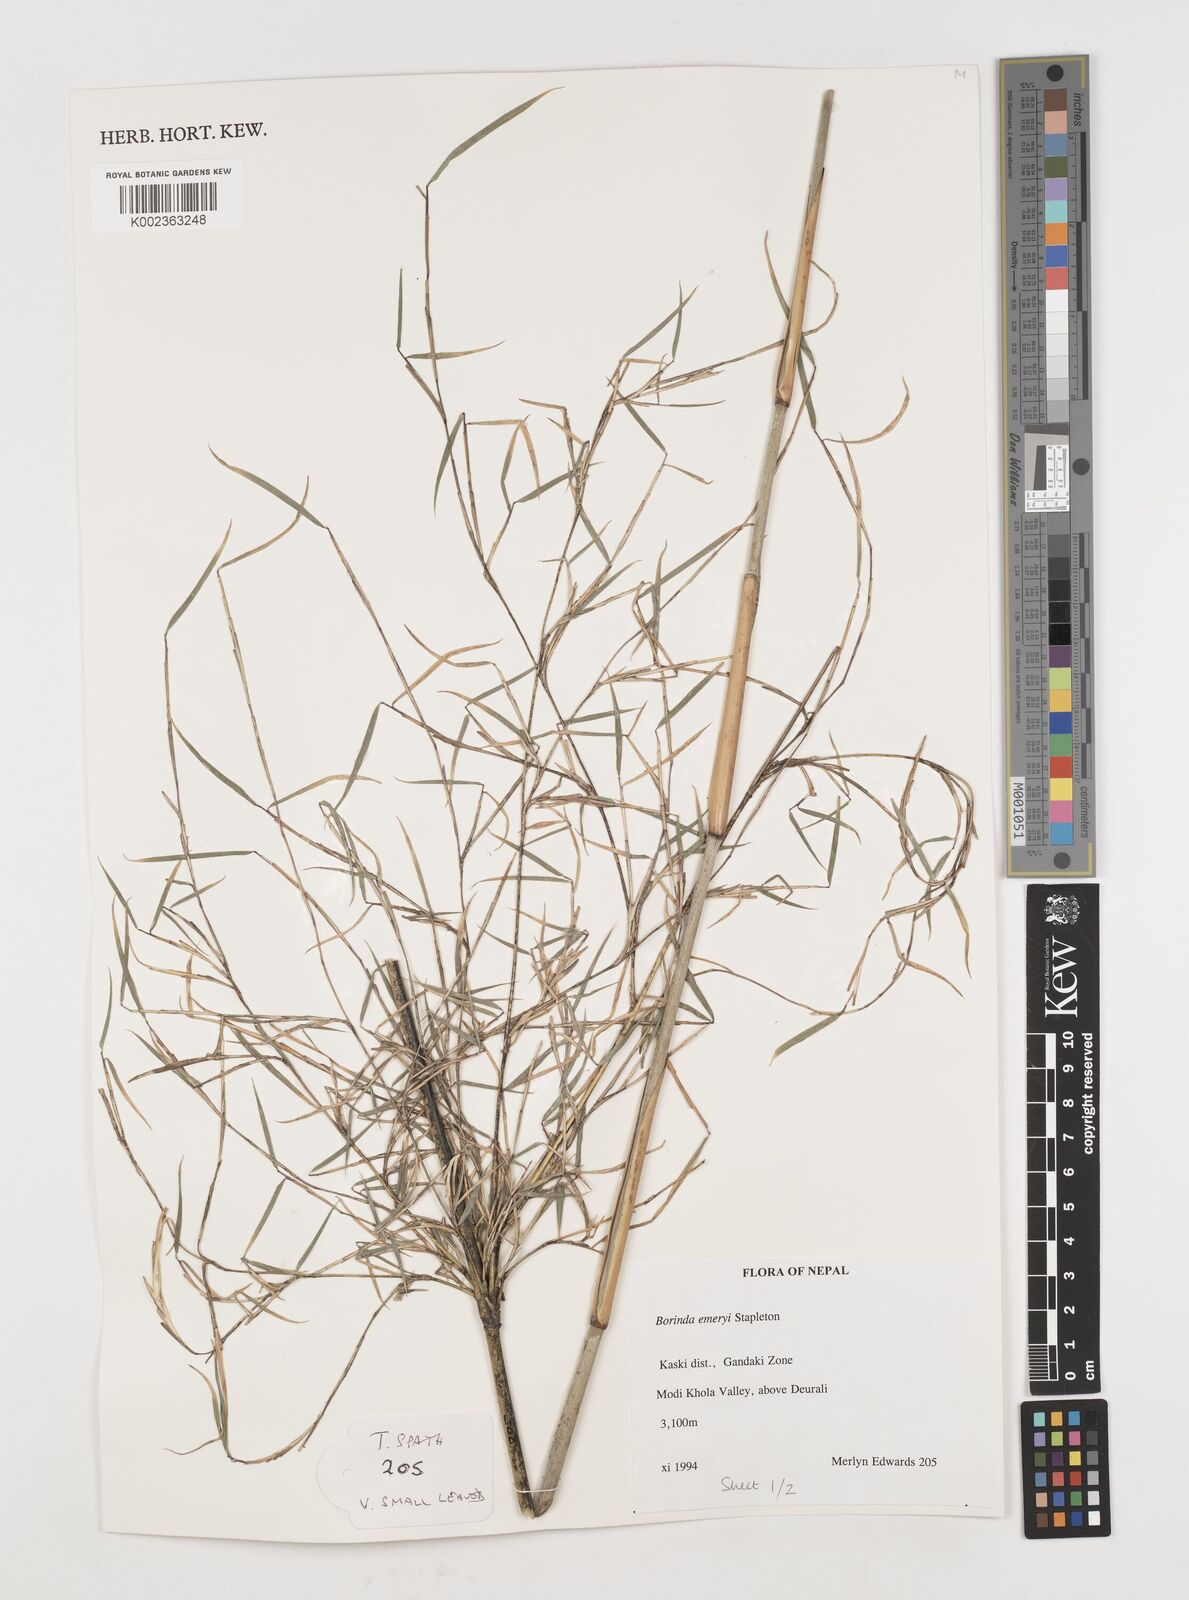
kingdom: Plantae
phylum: Tracheophyta
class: Liliopsida
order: Poales
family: Poaceae
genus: Fargesia
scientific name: Fargesia
